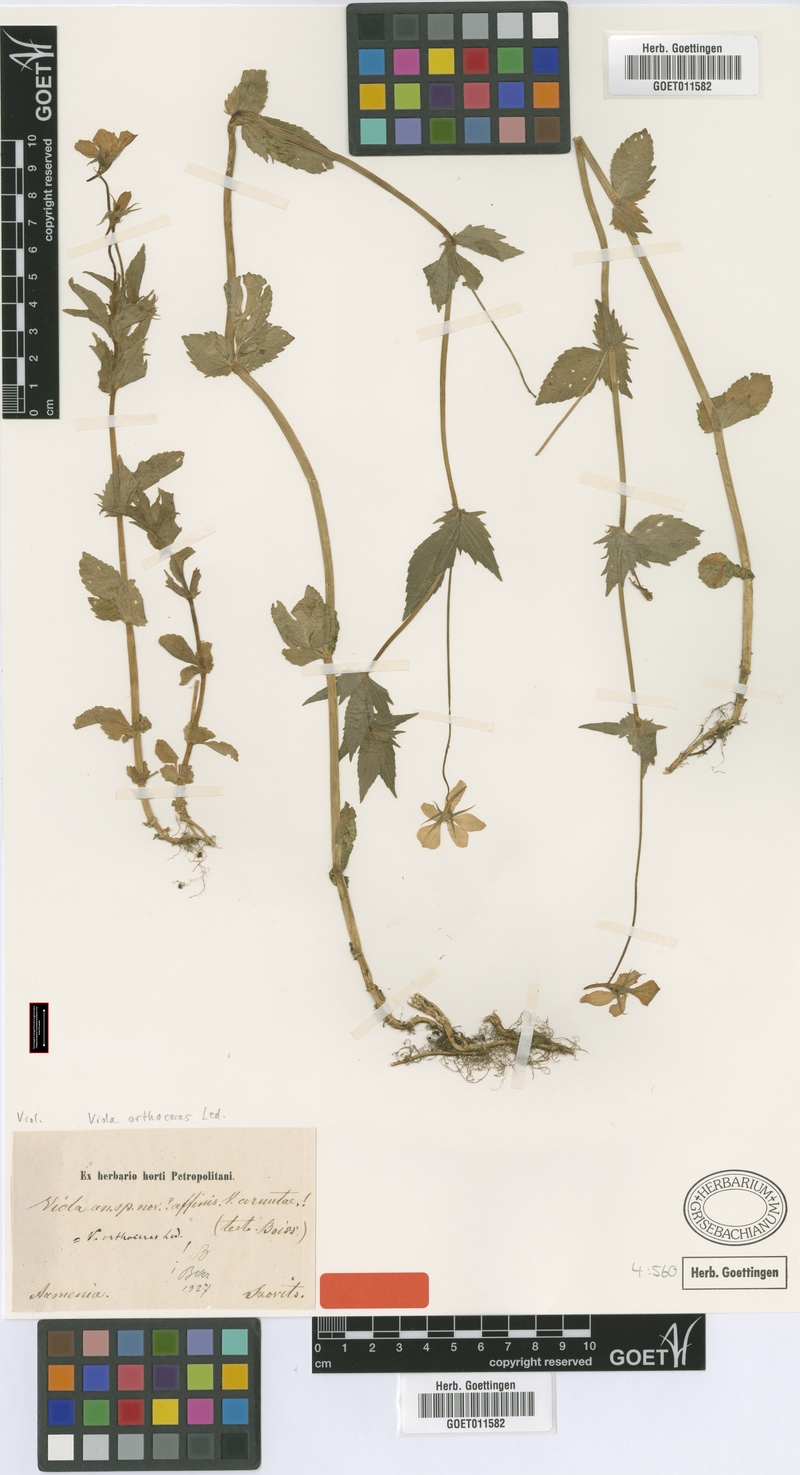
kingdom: Plantae
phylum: Tracheophyta
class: Magnoliopsida
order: Malpighiales
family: Violaceae
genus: Viola
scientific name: Viola orthoceras
